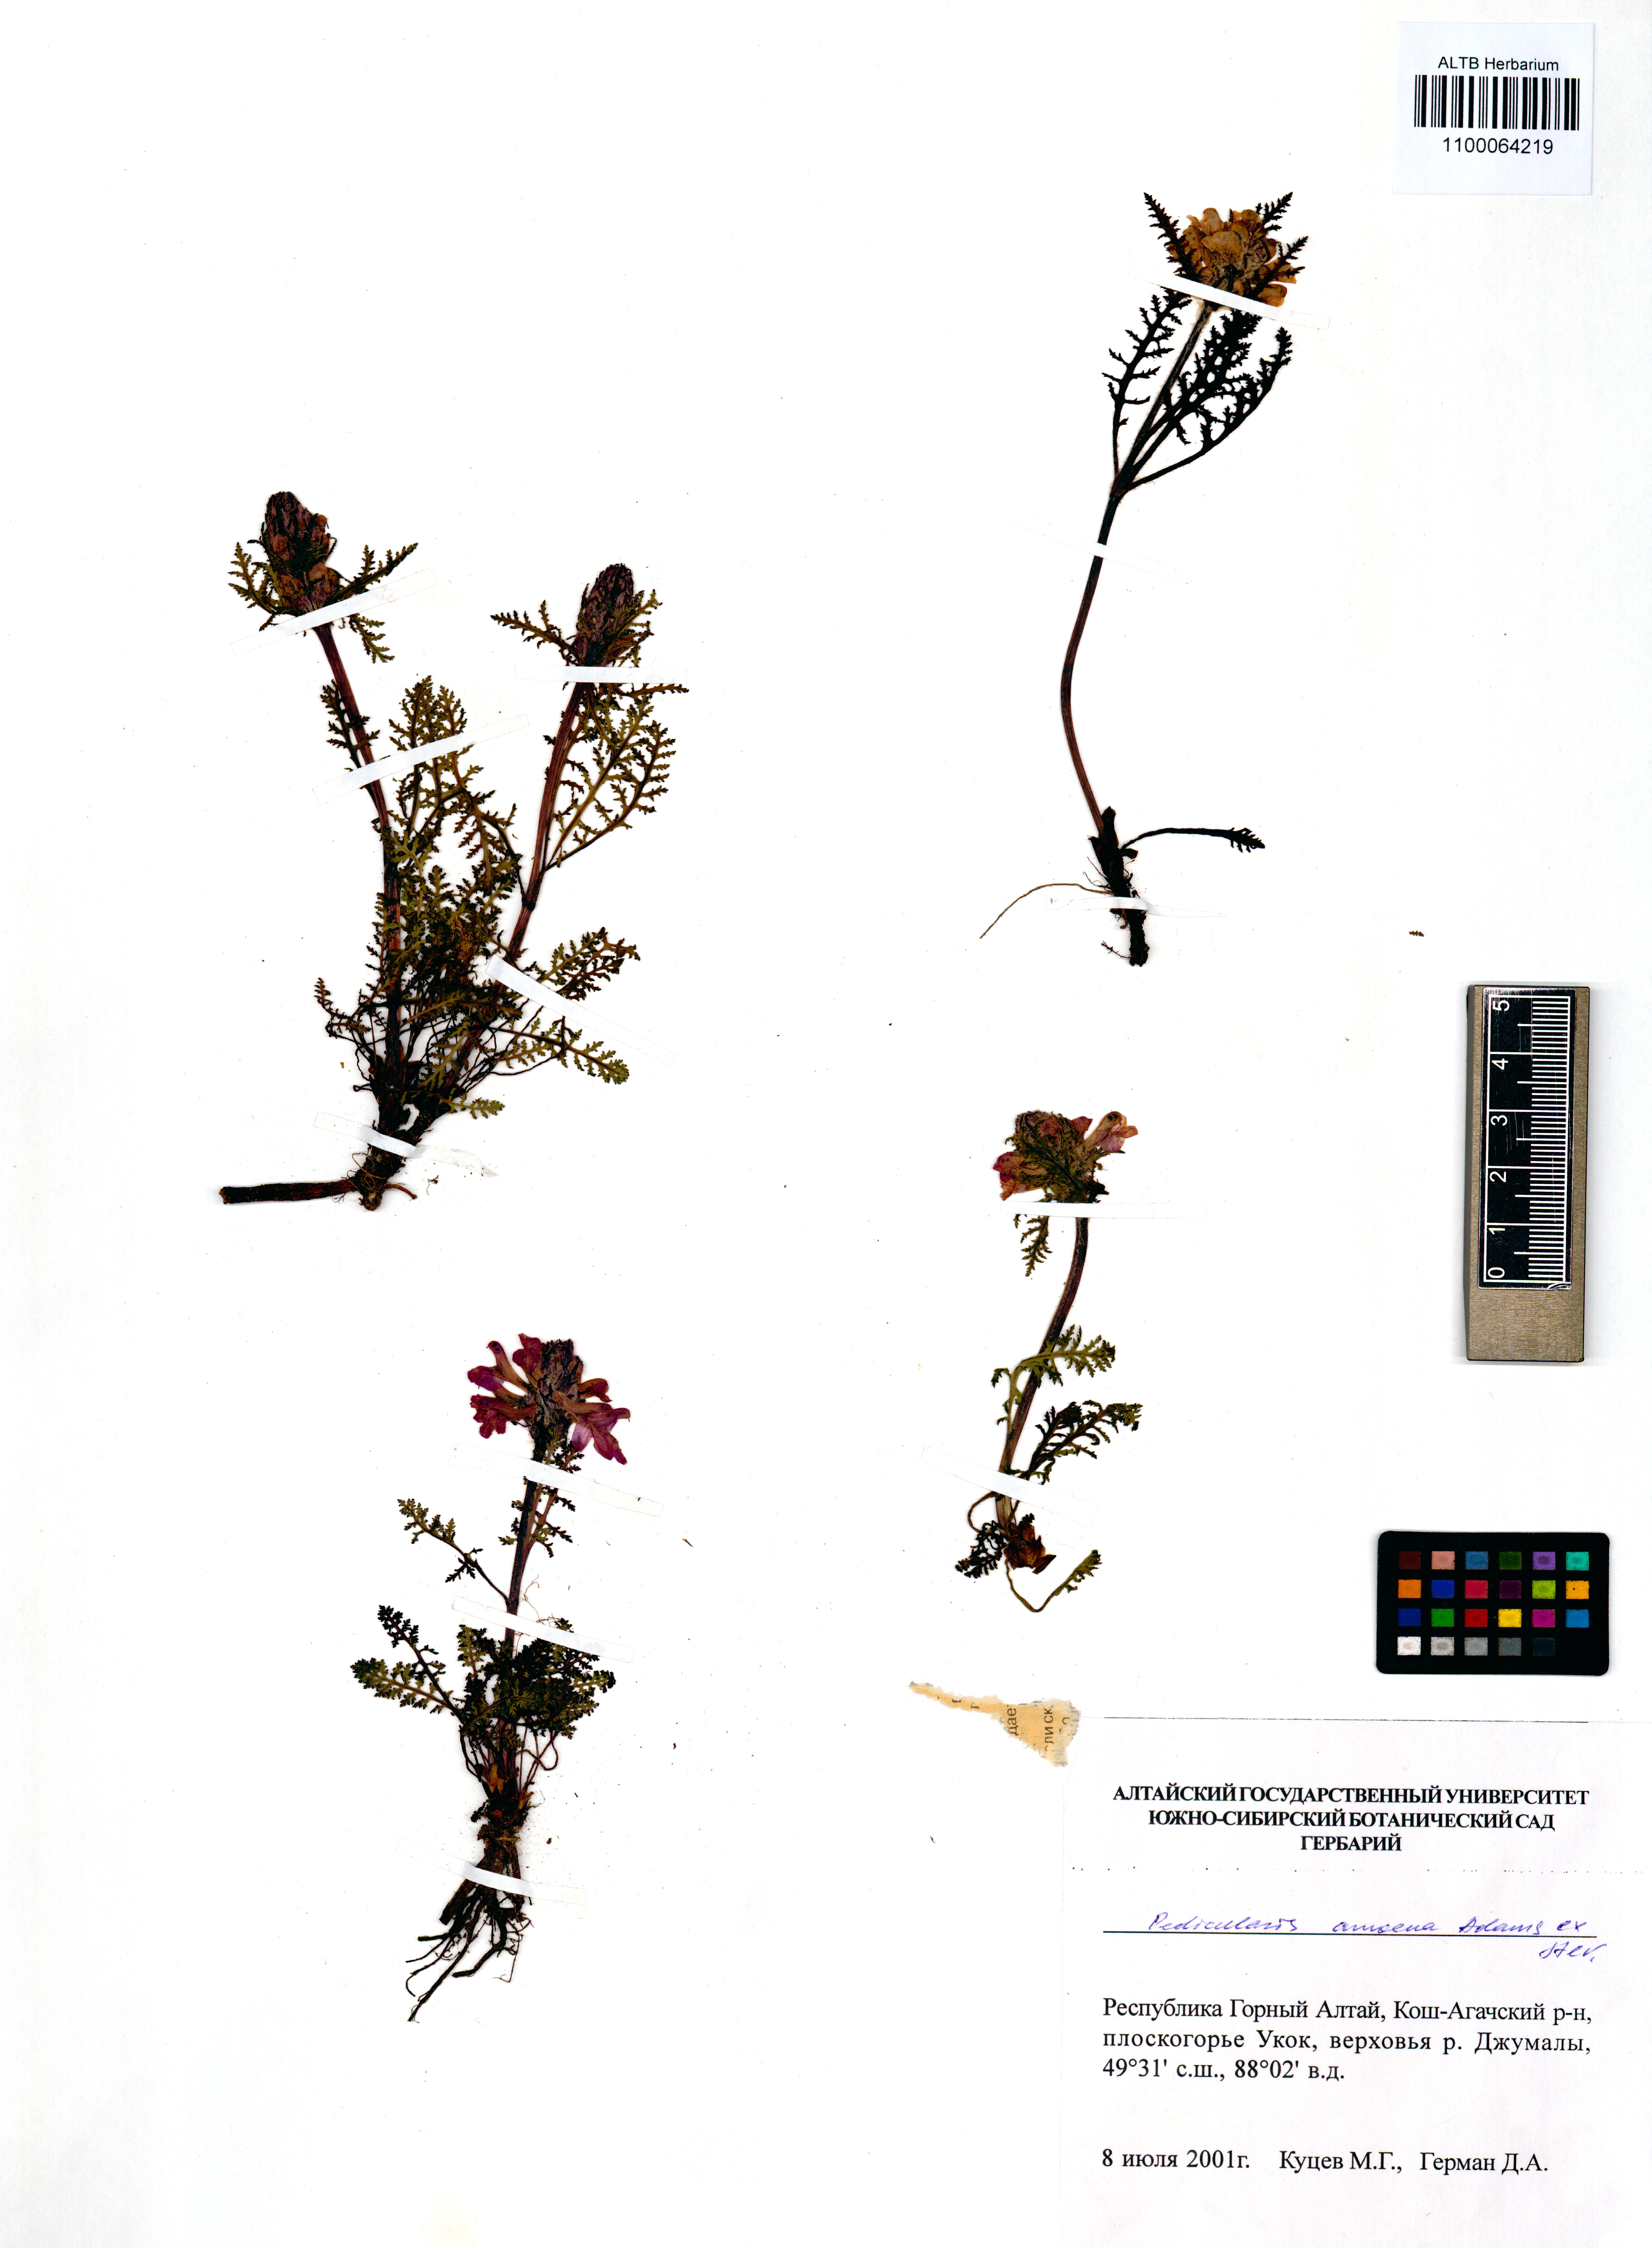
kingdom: Plantae
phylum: Tracheophyta
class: Magnoliopsida
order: Lamiales
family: Orobanchaceae
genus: Pedicularis
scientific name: Pedicularis amoena
